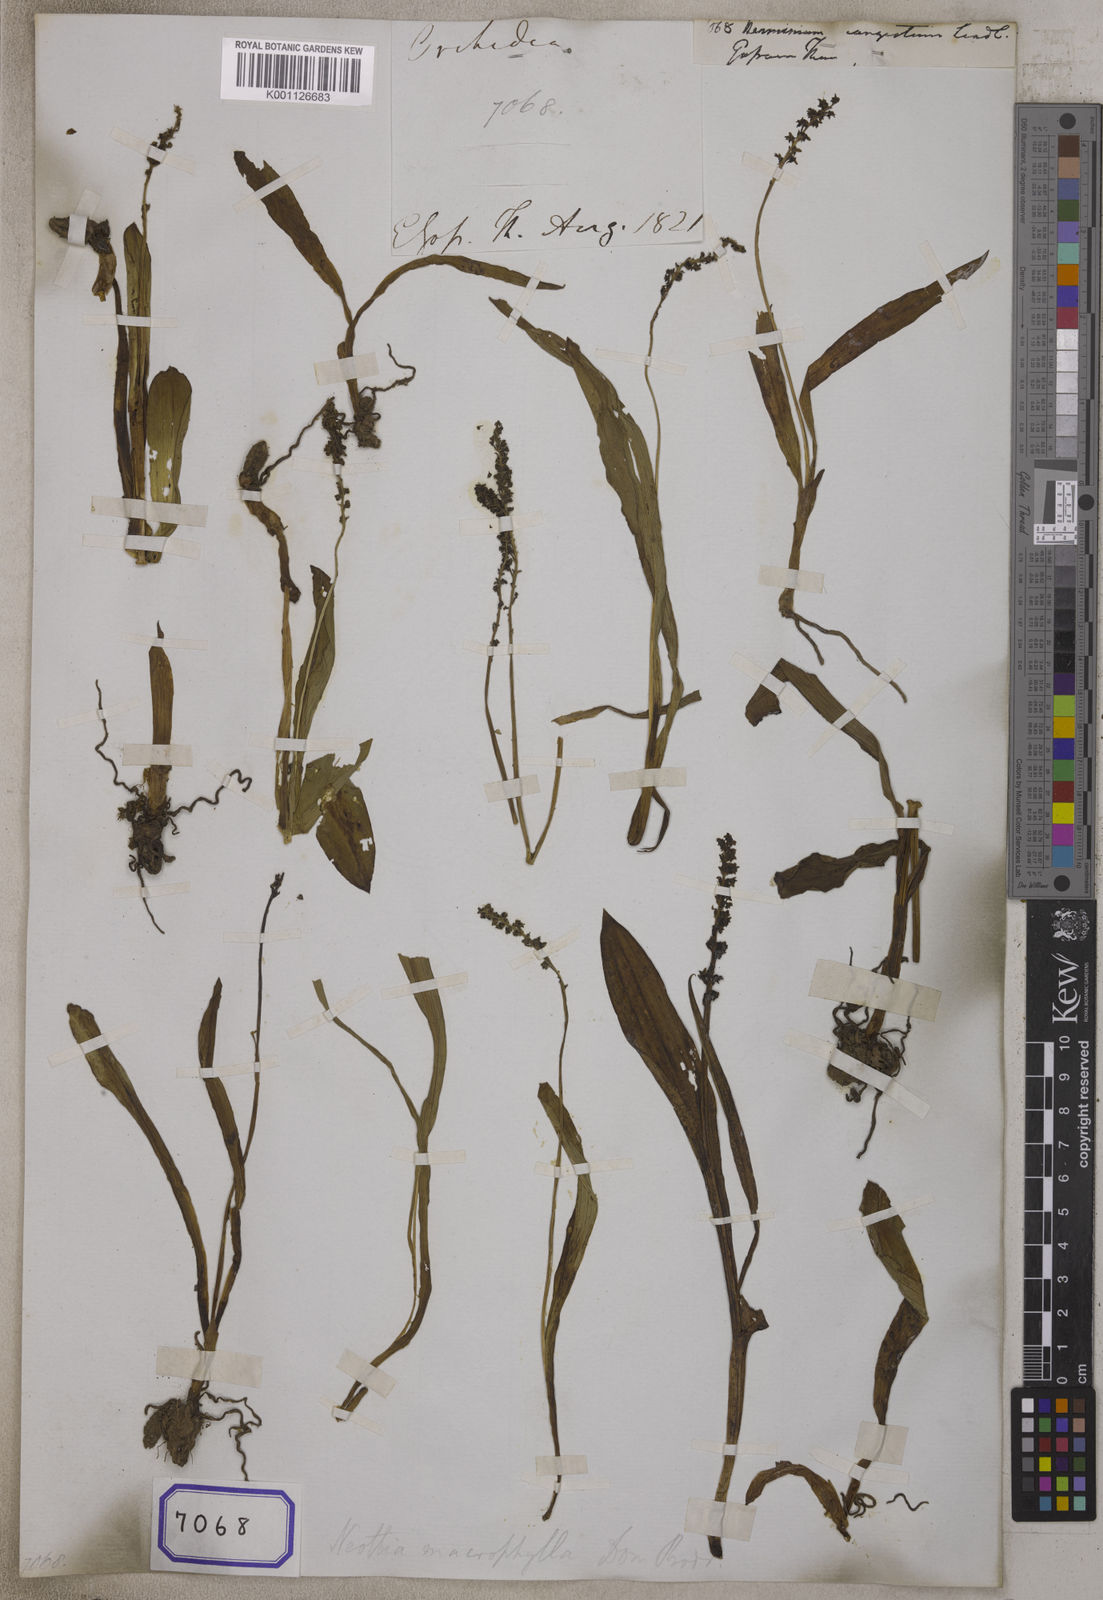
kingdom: Plantae
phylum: Tracheophyta
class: Liliopsida
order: Asparagales
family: Orchidaceae
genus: Herminium
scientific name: Herminium macrophyllum
